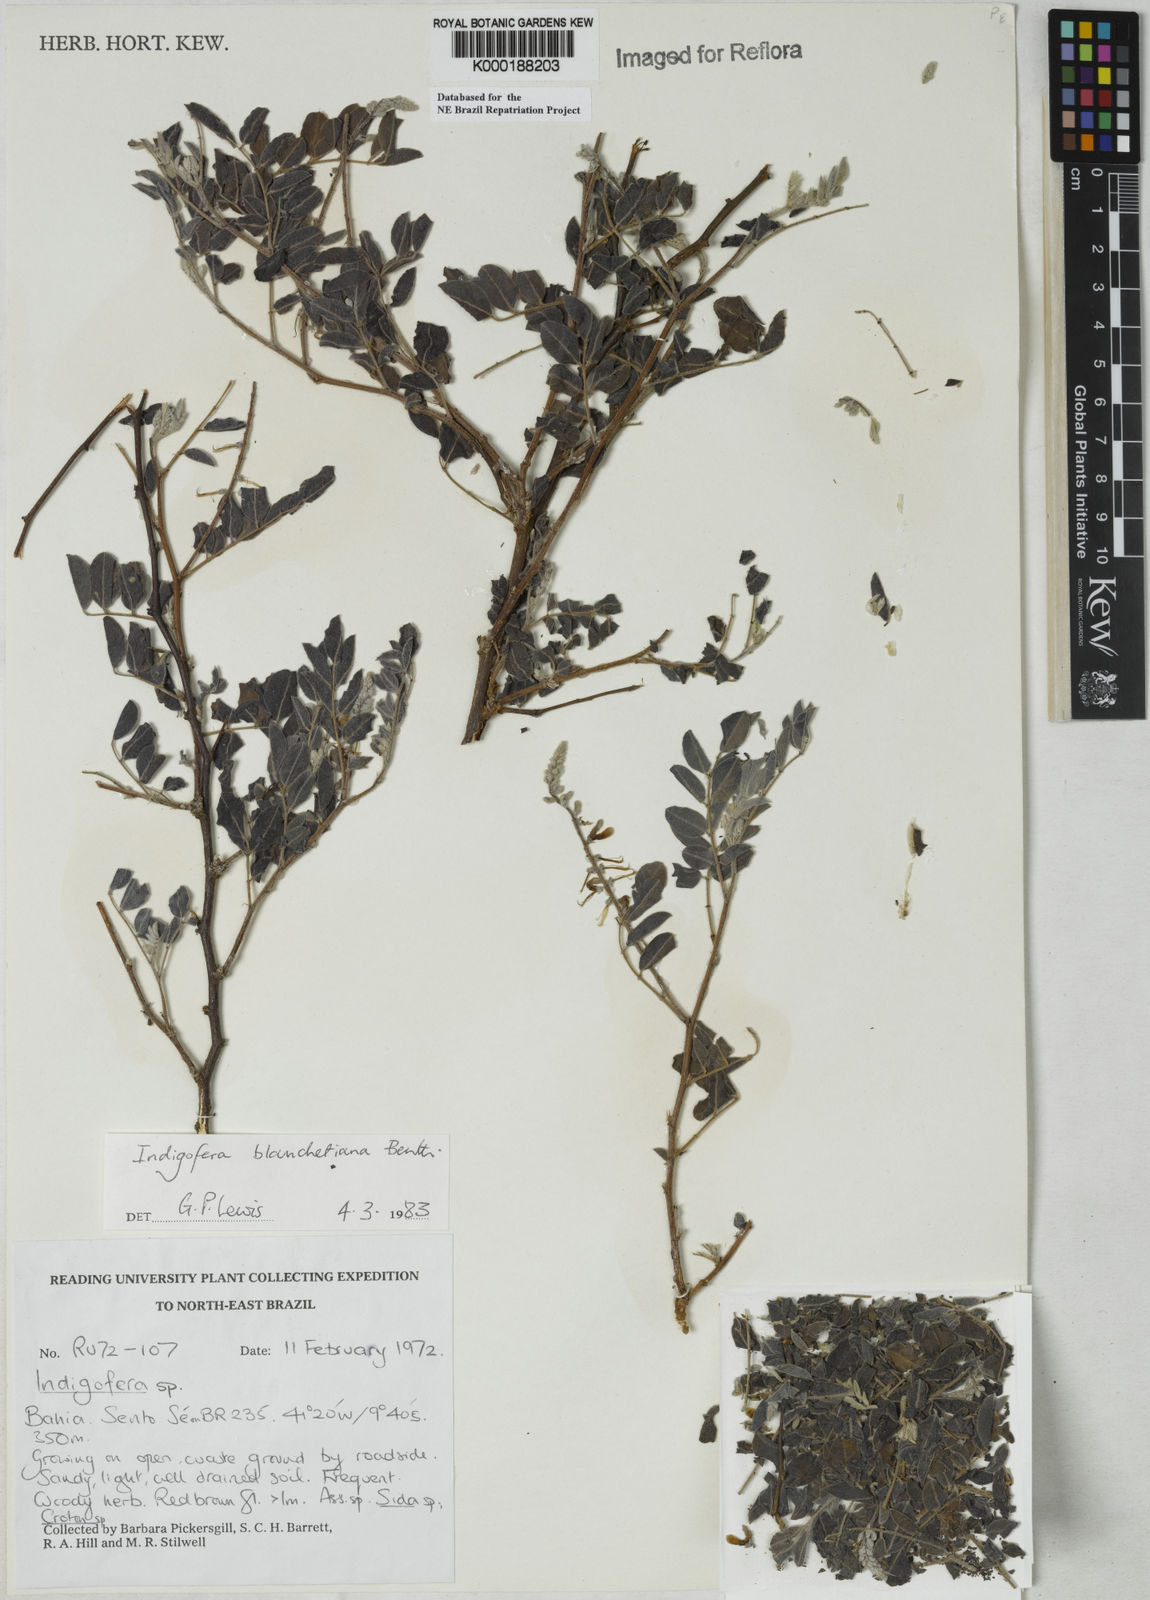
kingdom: Plantae
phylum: Tracheophyta
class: Magnoliopsida
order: Fabales
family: Fabaceae
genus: Indigofera
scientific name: Indigofera blanchetiana
